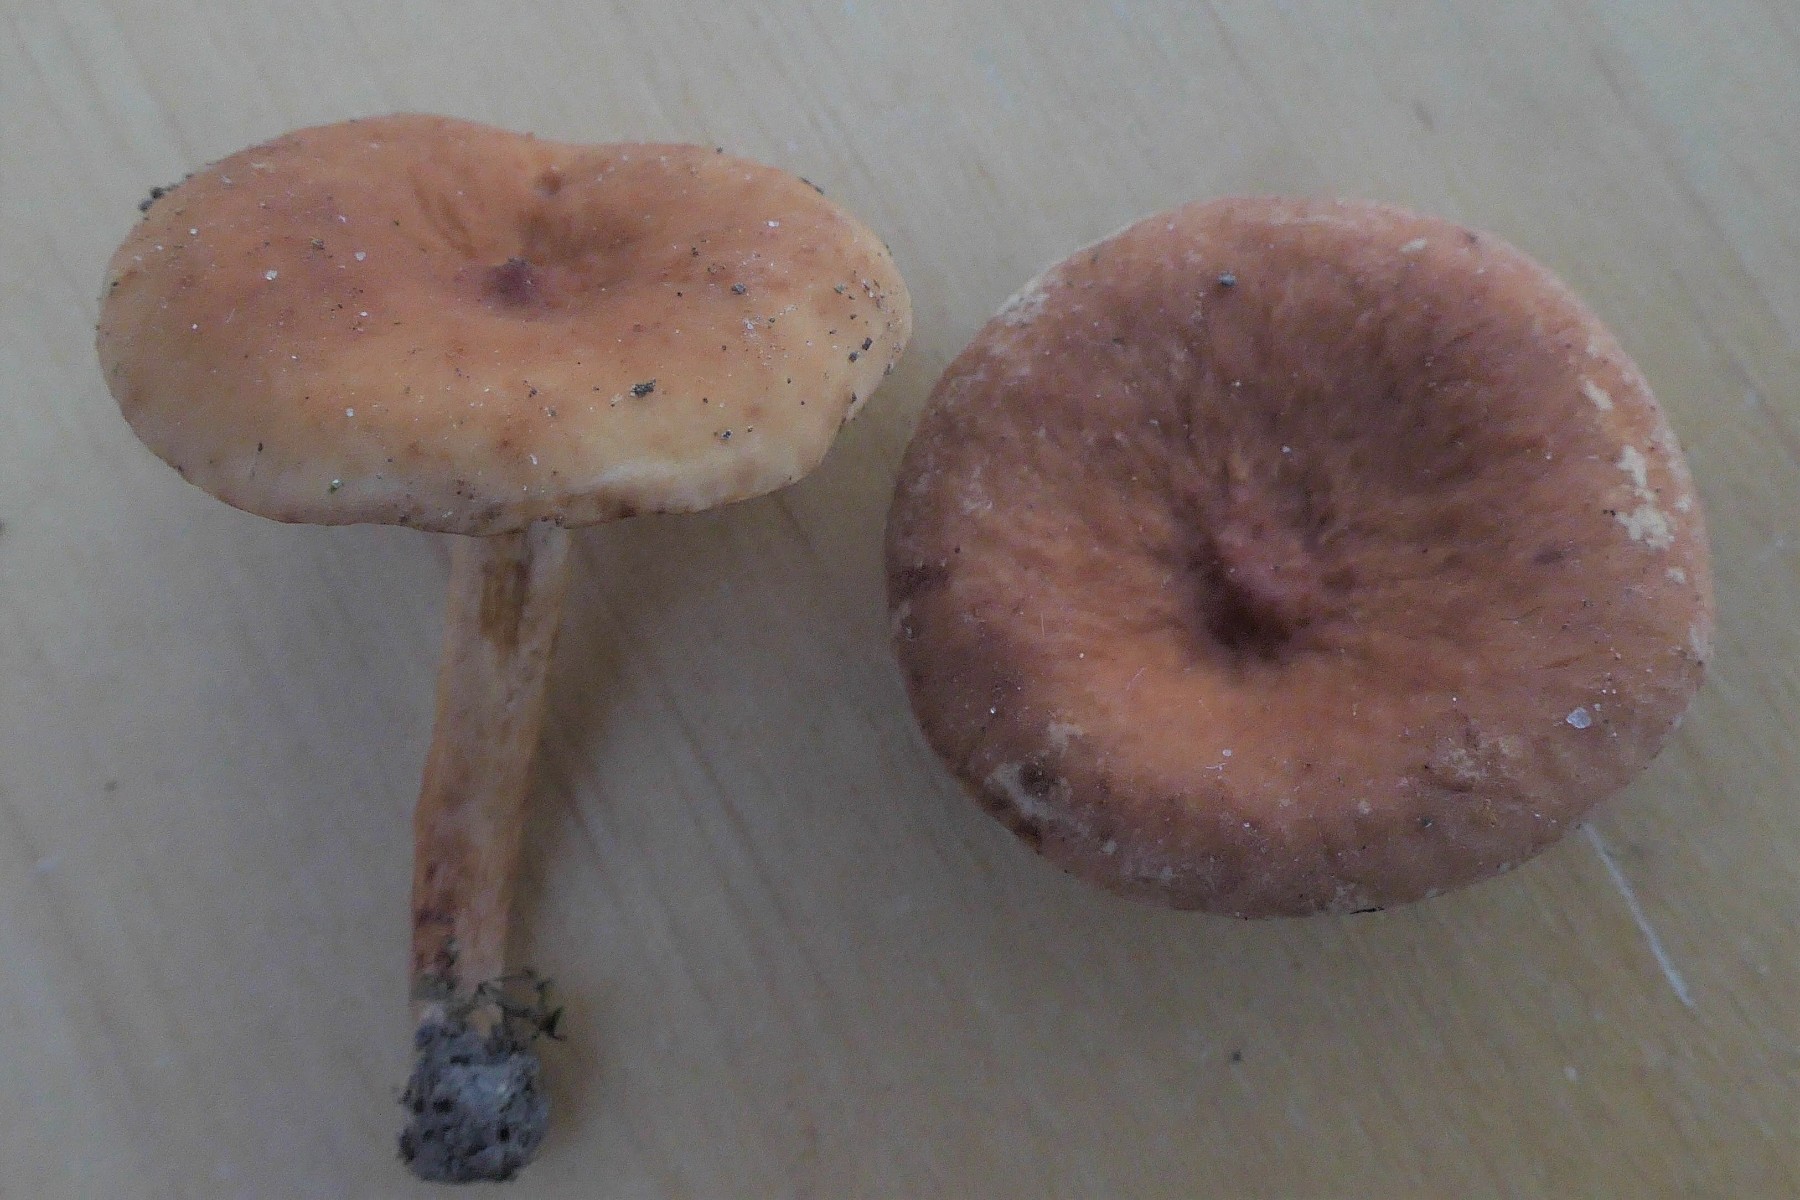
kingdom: Fungi
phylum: Basidiomycota
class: Agaricomycetes
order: Russulales
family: Russulaceae
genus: Lactarius
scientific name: Lactarius rostratus
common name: nubret mælkehat
